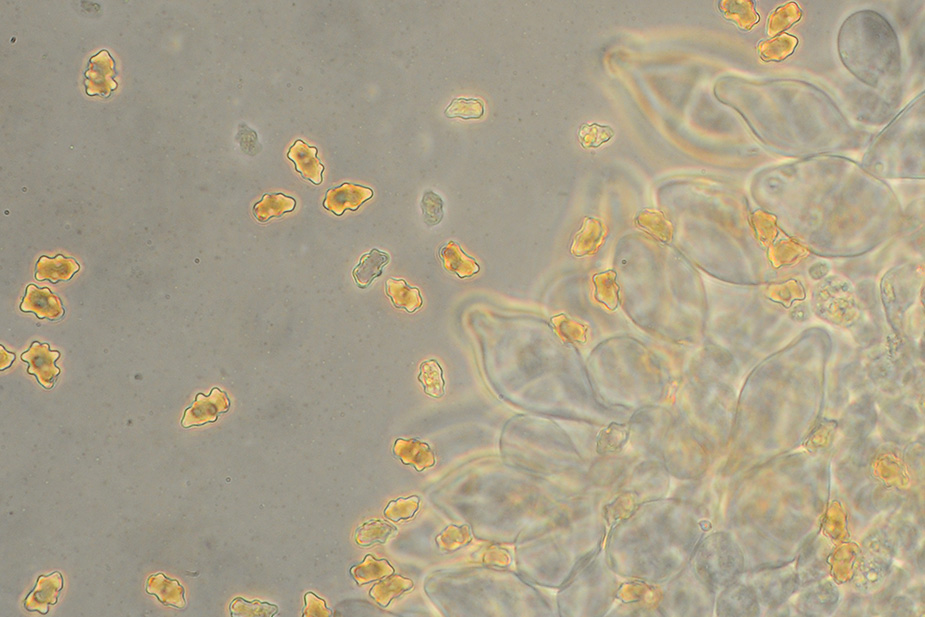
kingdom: Fungi
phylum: Basidiomycota
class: Agaricomycetes
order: Agaricales
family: Inocybaceae
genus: Inocybe
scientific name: Inocybe curvipes
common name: plæne-trævlhat
